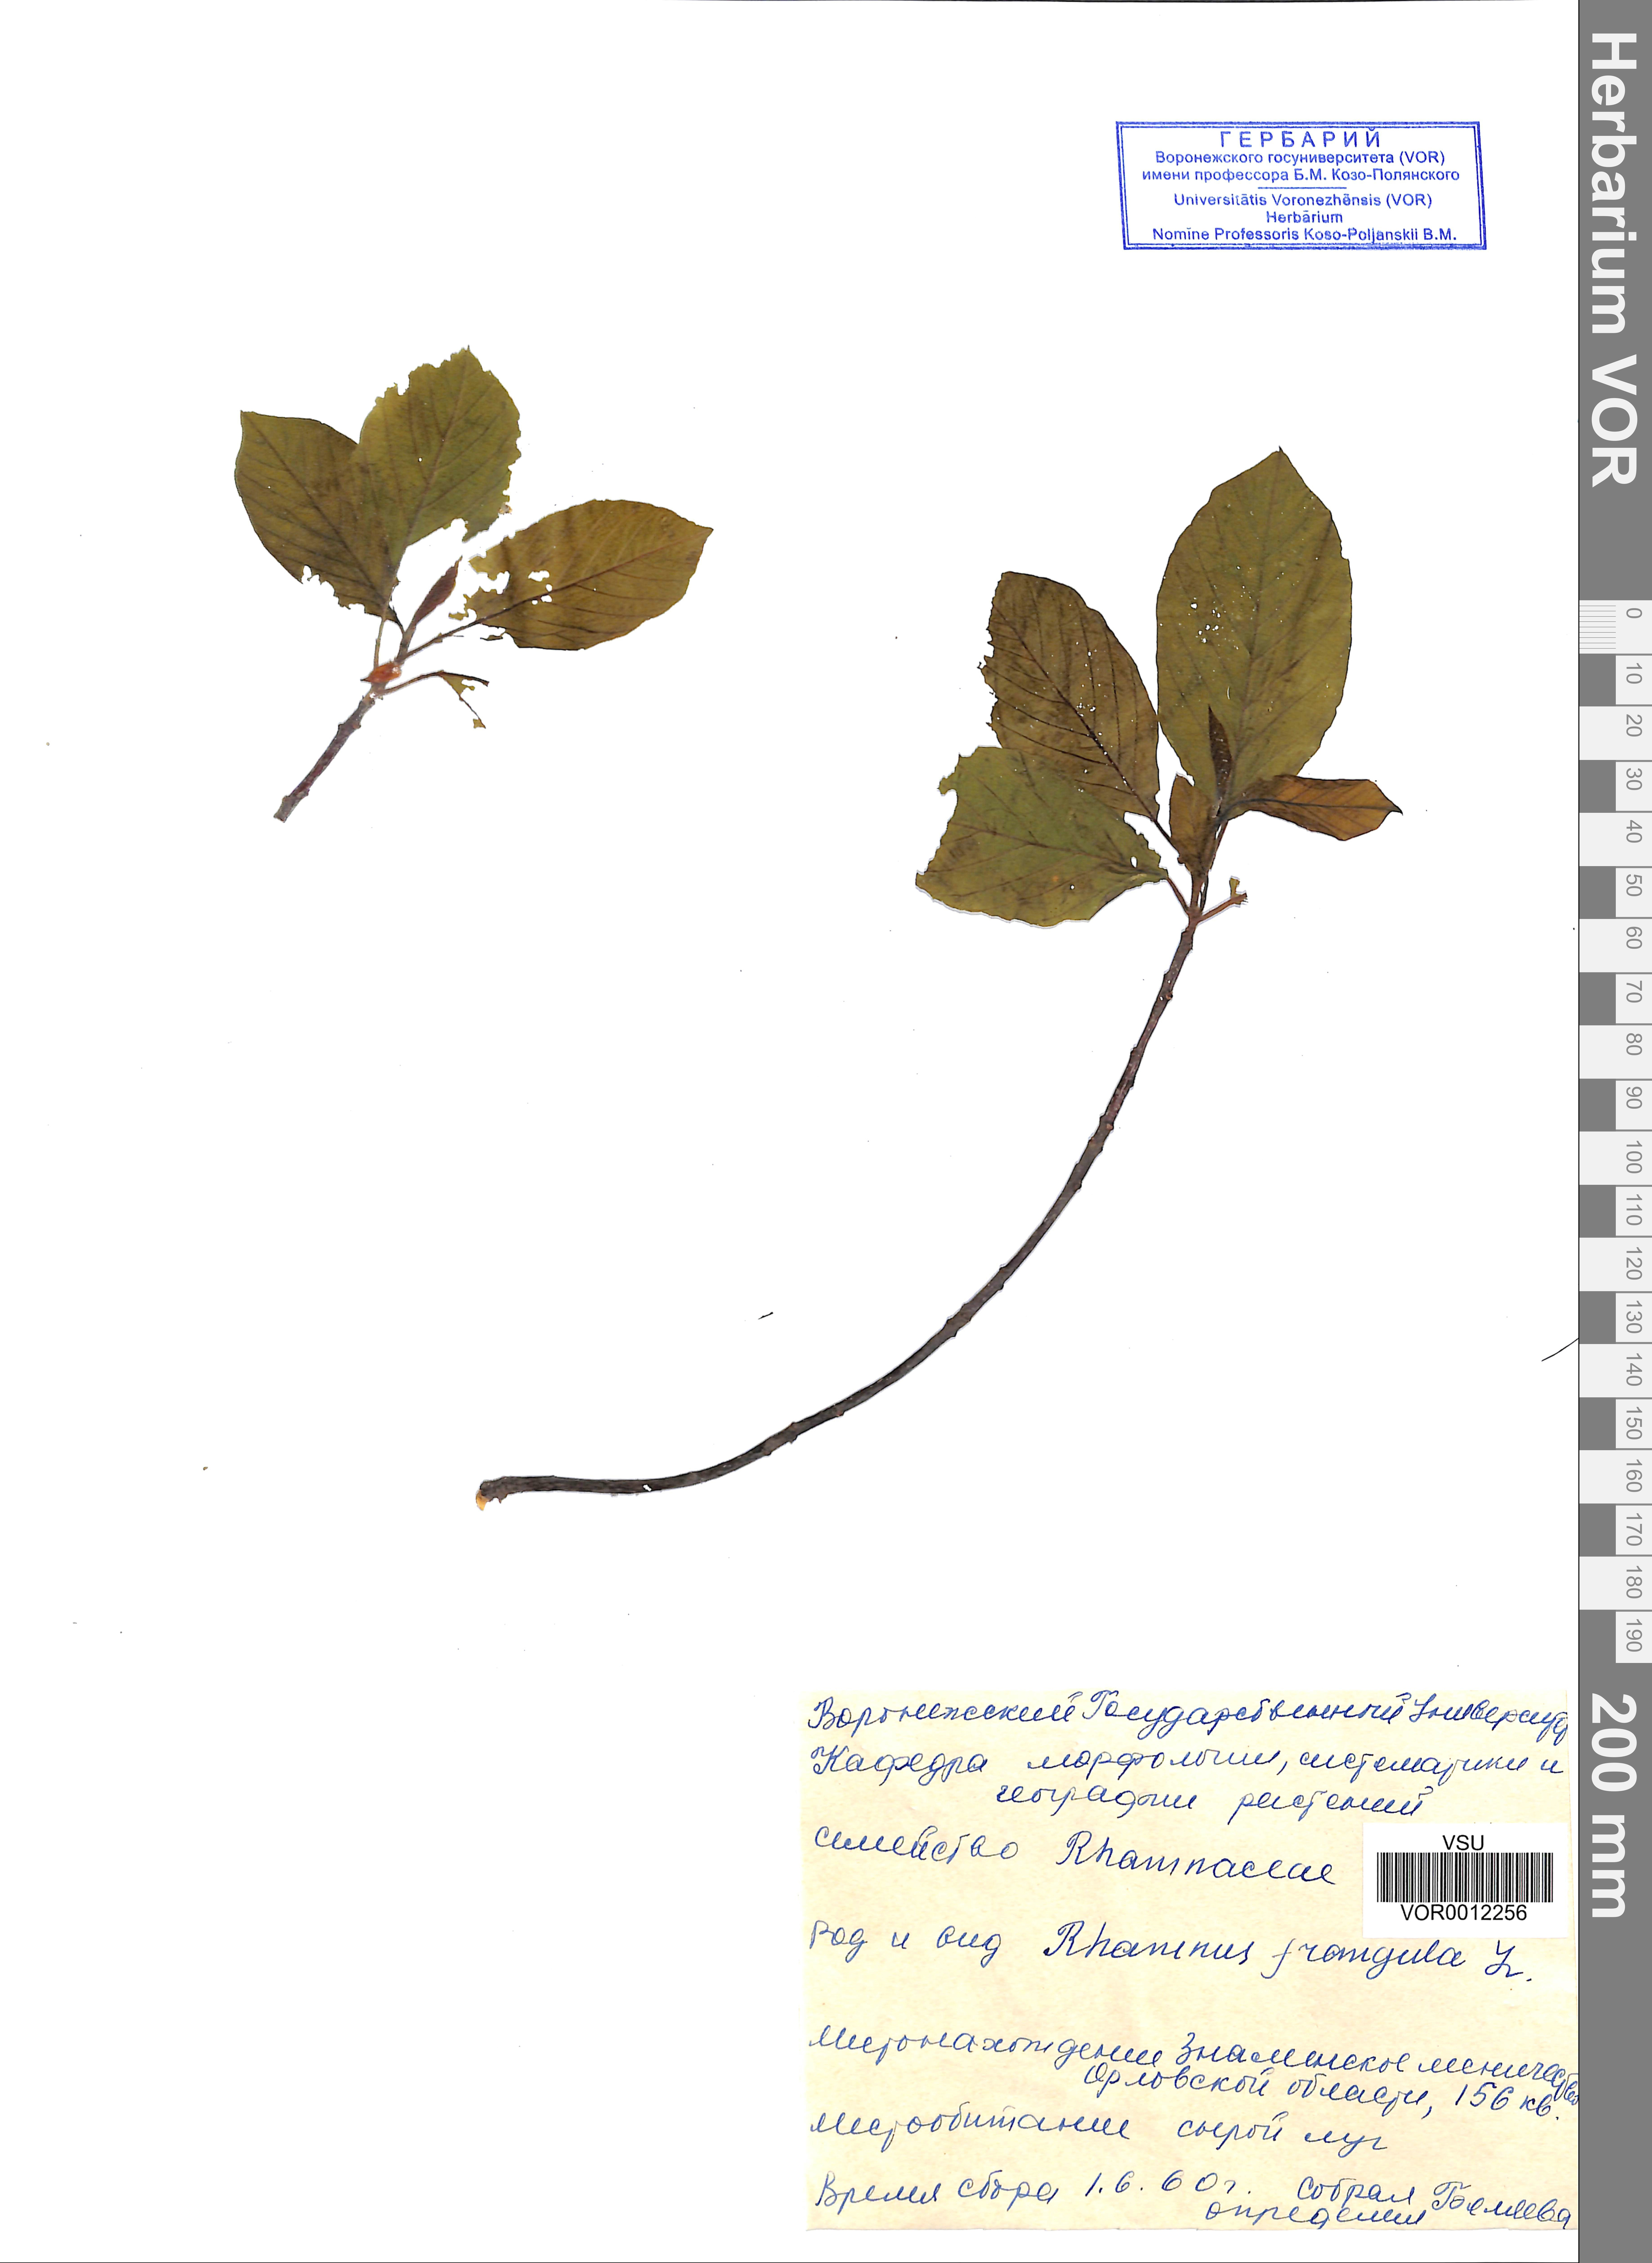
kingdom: Plantae
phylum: Tracheophyta
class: Magnoliopsida
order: Rosales
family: Rhamnaceae
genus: Frangula
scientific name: Frangula alnus
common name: Alder buckthorn
